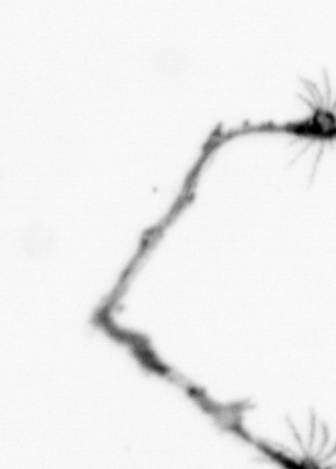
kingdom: Animalia
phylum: Cnidaria
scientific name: Cnidaria
